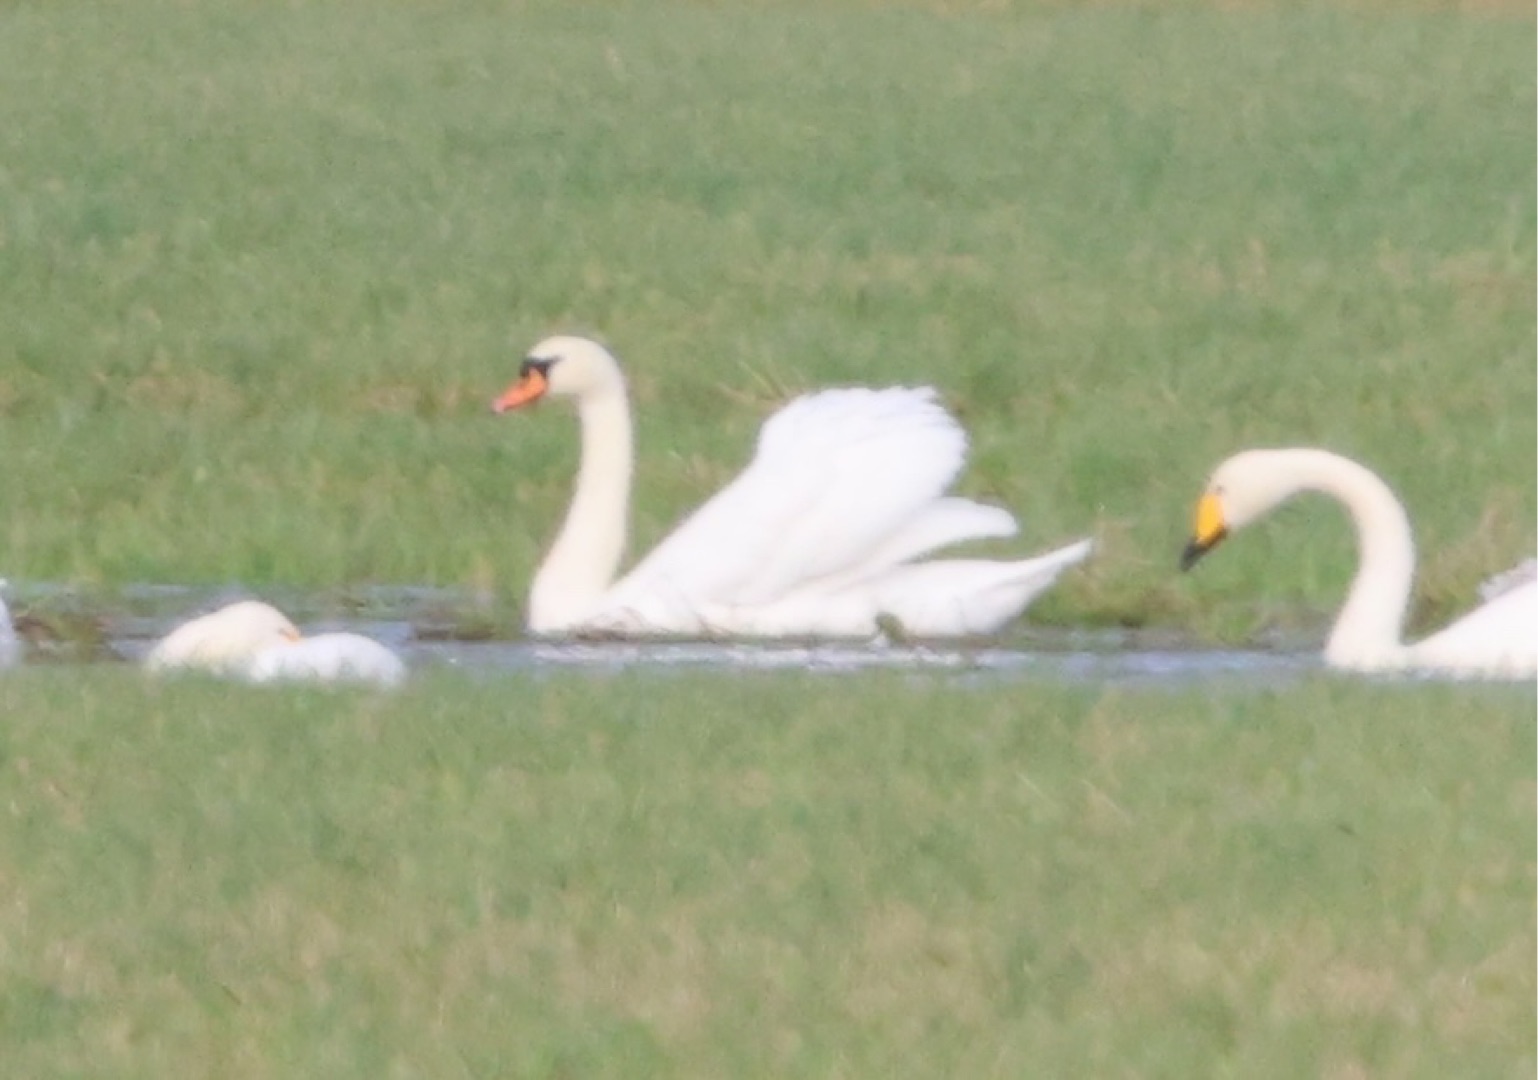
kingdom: Animalia
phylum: Chordata
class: Aves
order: Anseriformes
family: Anatidae
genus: Cygnus
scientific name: Cygnus olor
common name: Knopsvane
